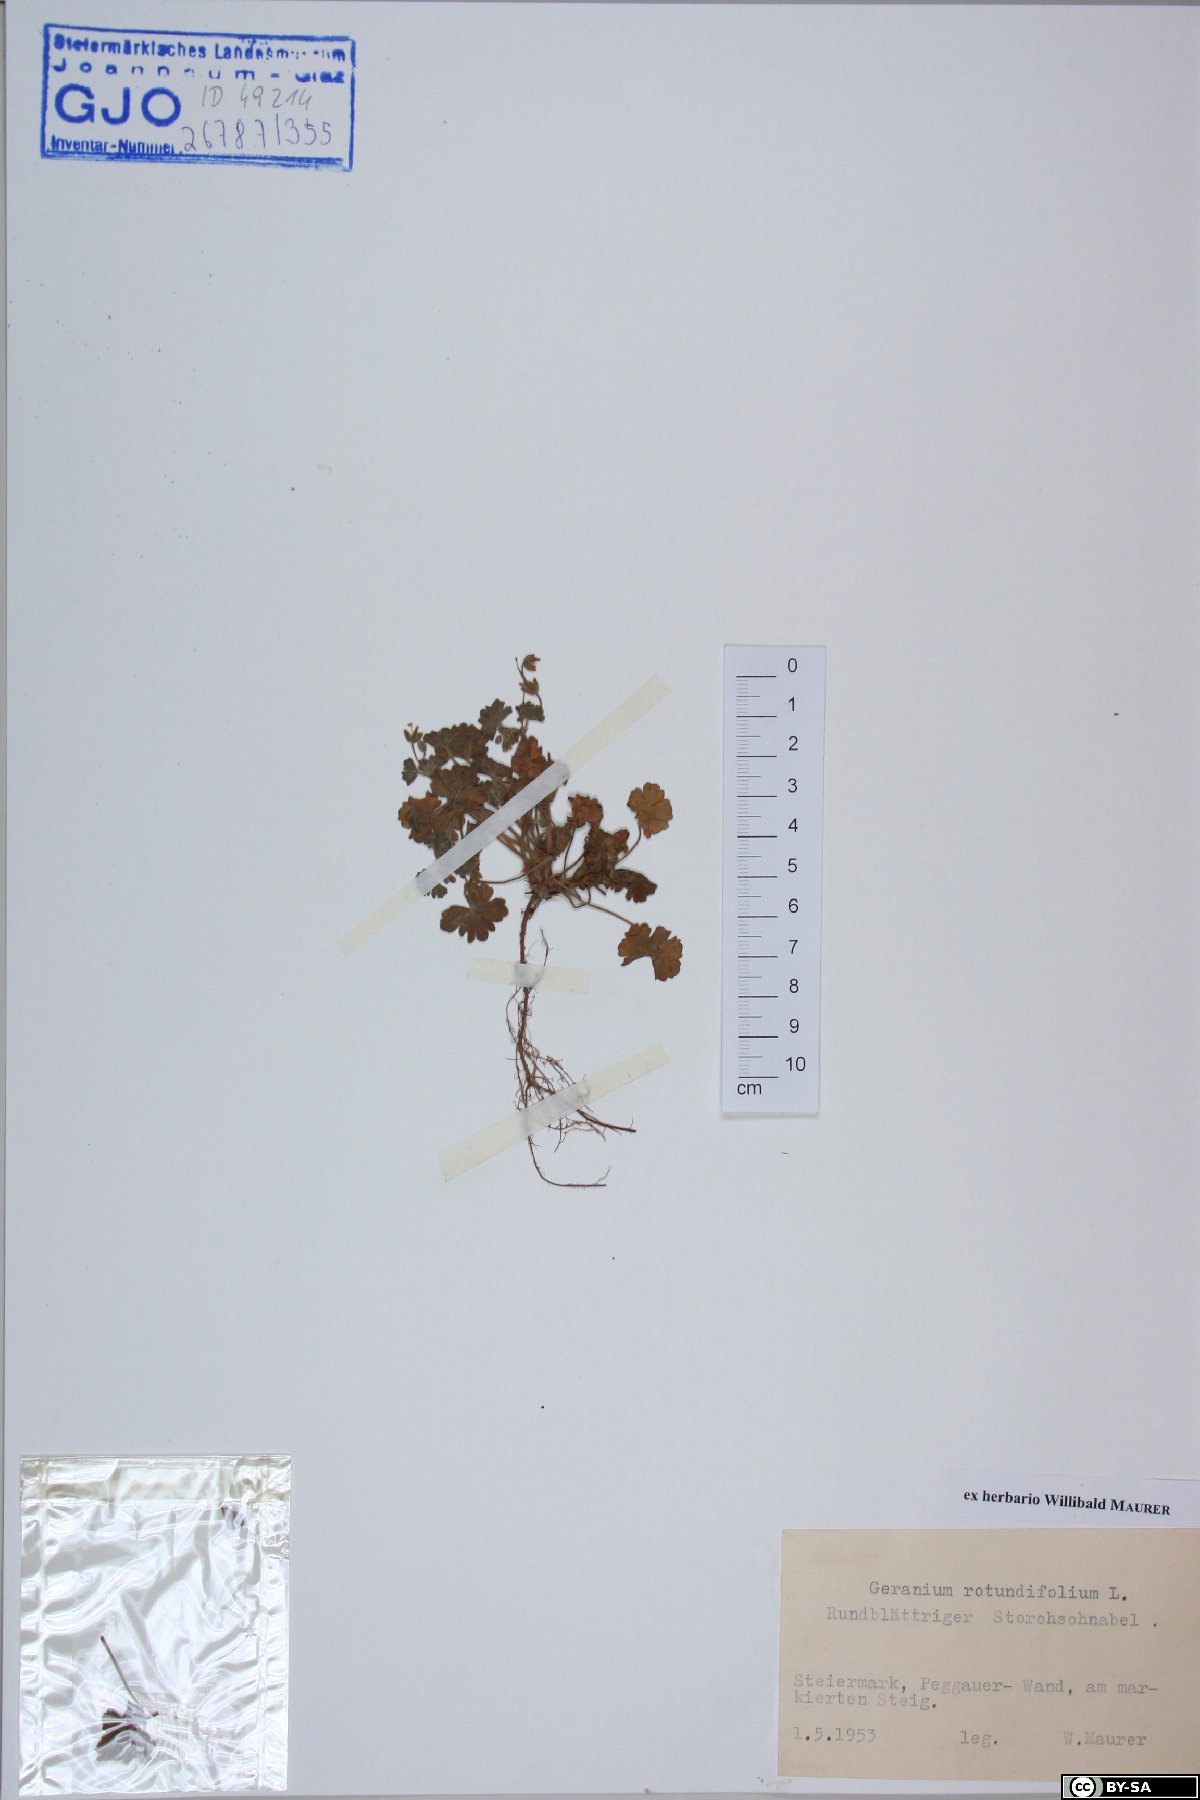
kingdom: Plantae
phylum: Tracheophyta
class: Magnoliopsida
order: Geraniales
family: Geraniaceae
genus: Geranium
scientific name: Geranium rotundifolium
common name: Round-leaved crane's-bill
